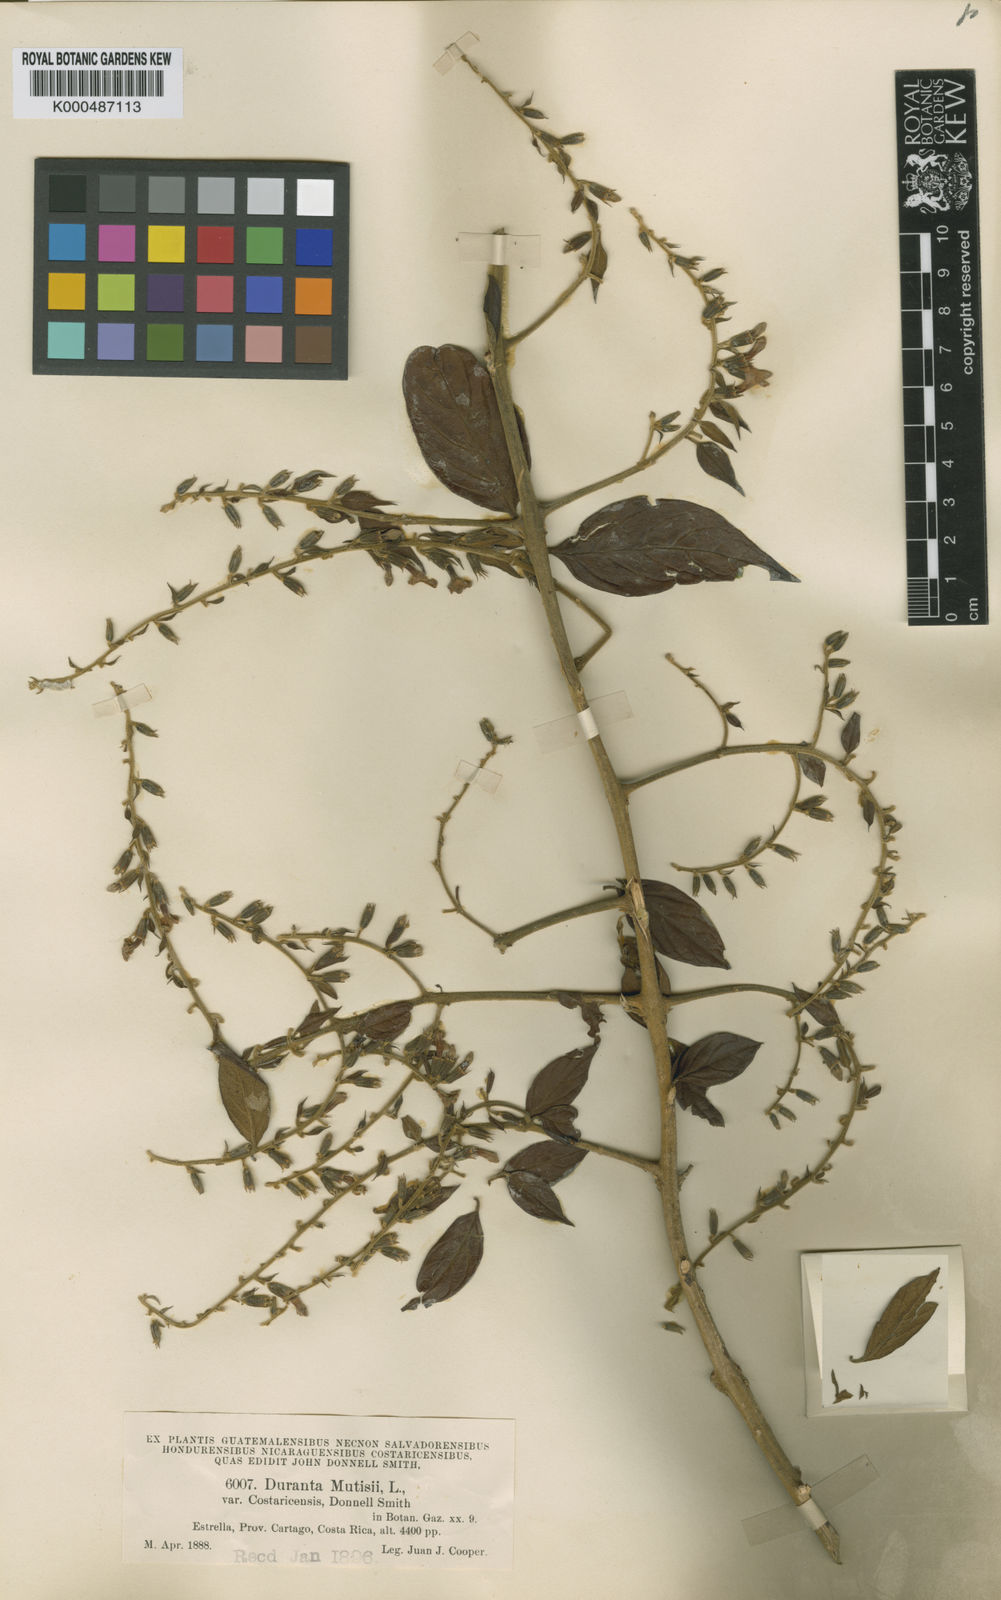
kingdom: Plantae
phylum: Tracheophyta
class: Magnoliopsida
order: Lamiales
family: Verbenaceae
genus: Duranta
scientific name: Duranta mutisii
